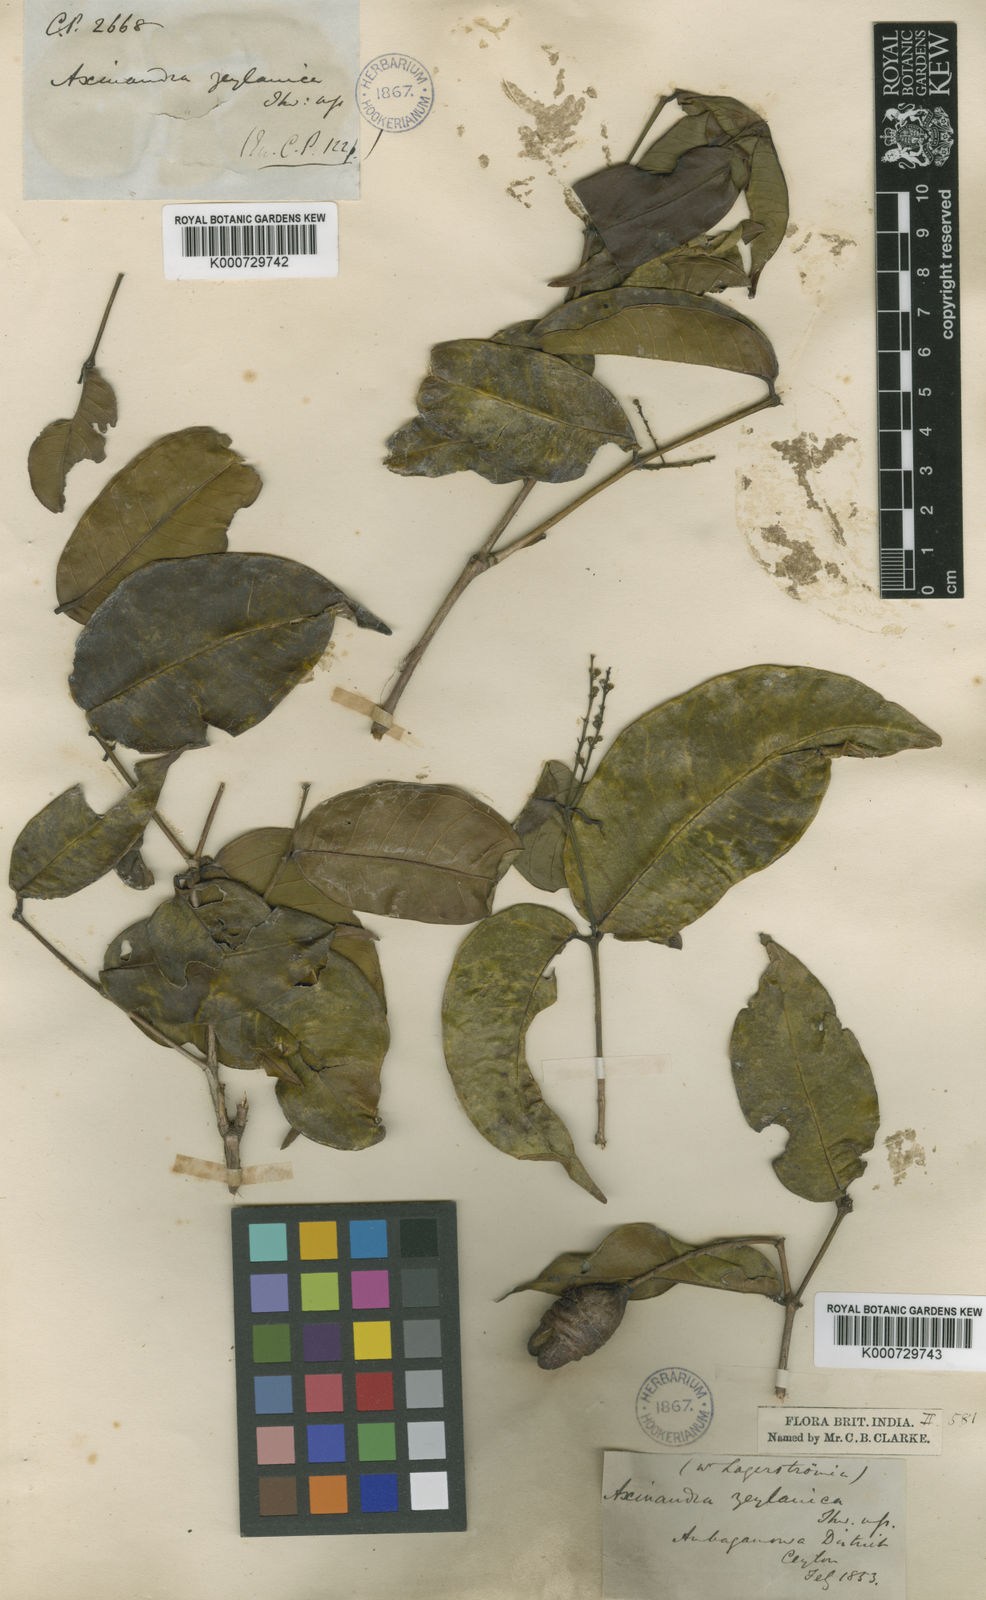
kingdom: Plantae
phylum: Tracheophyta
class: Magnoliopsida
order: Myrtales
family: Crypteroniaceae
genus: Axinandra
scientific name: Axinandra zeylanica
